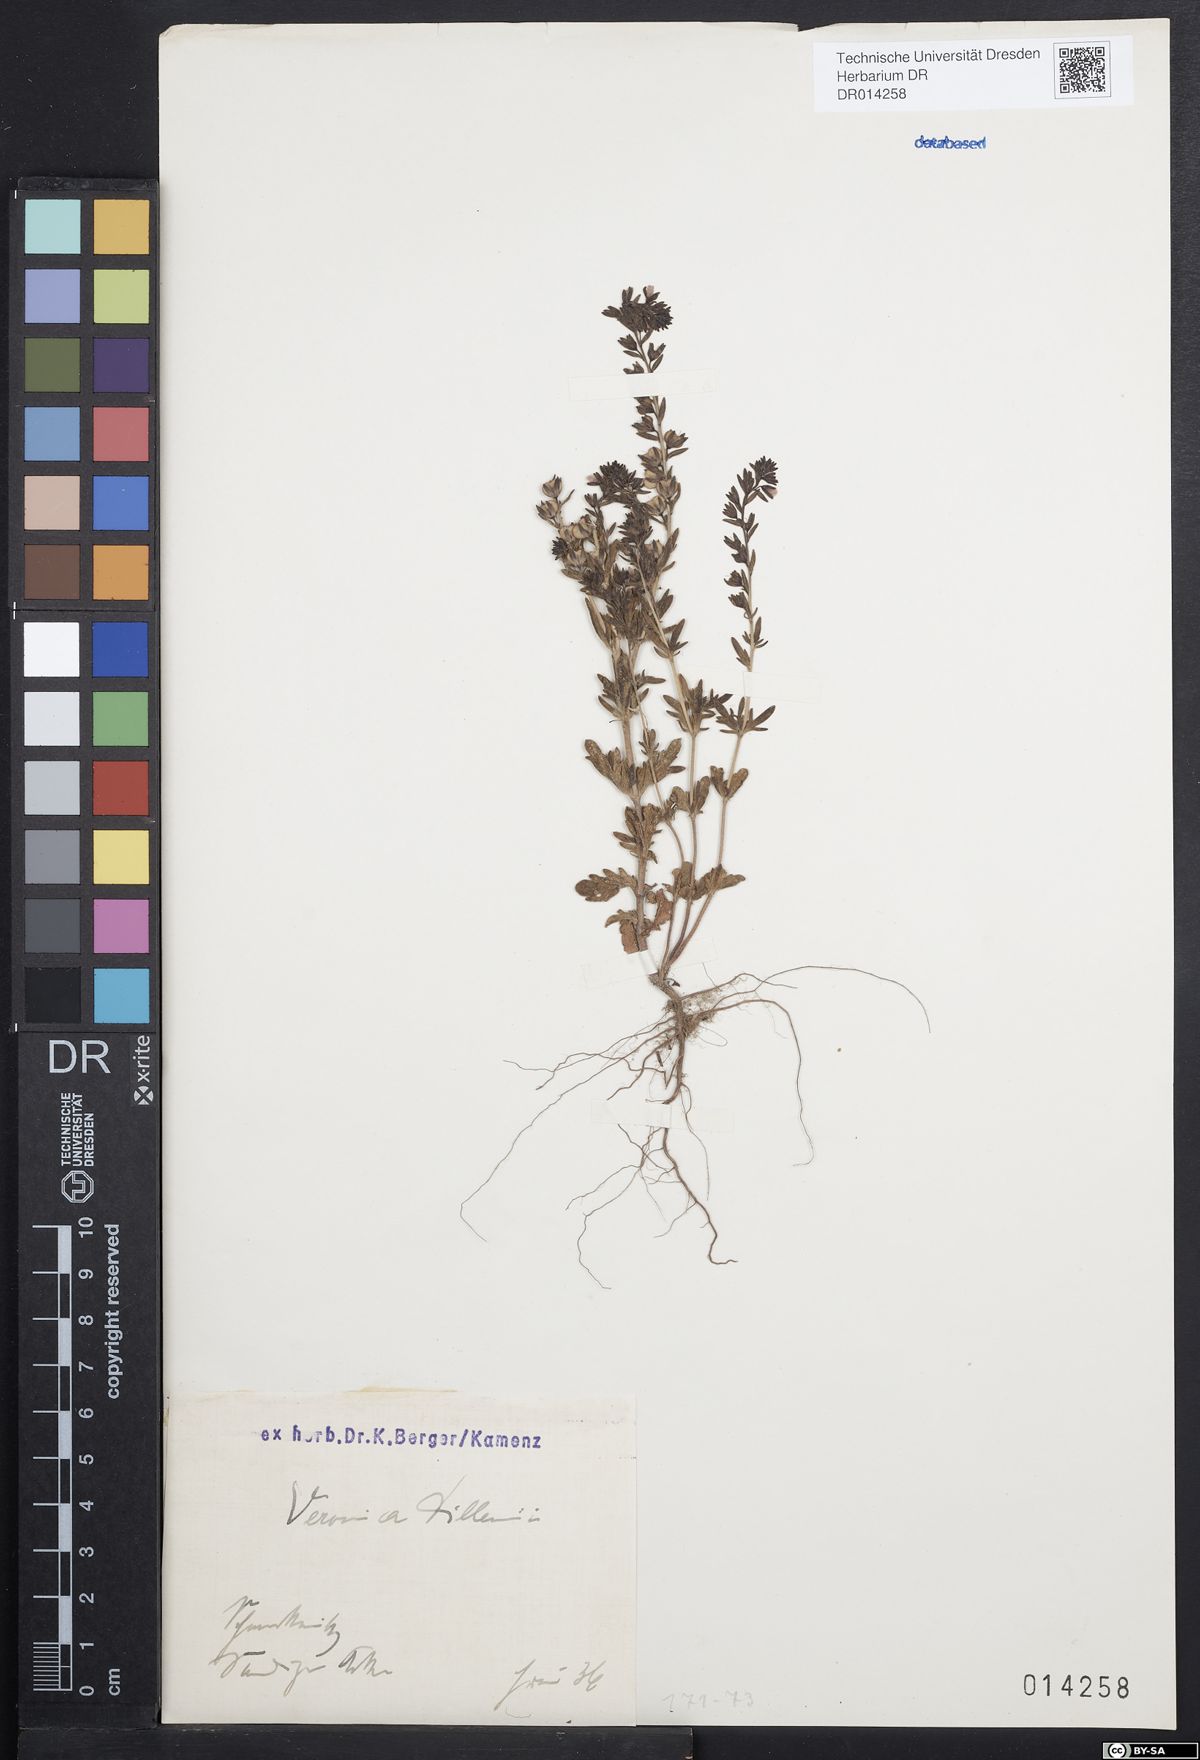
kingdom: Plantae
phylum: Tracheophyta
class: Magnoliopsida
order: Lamiales
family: Plantaginaceae
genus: Veronica
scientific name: Veronica dillenii
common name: Dillenius' speedwell
